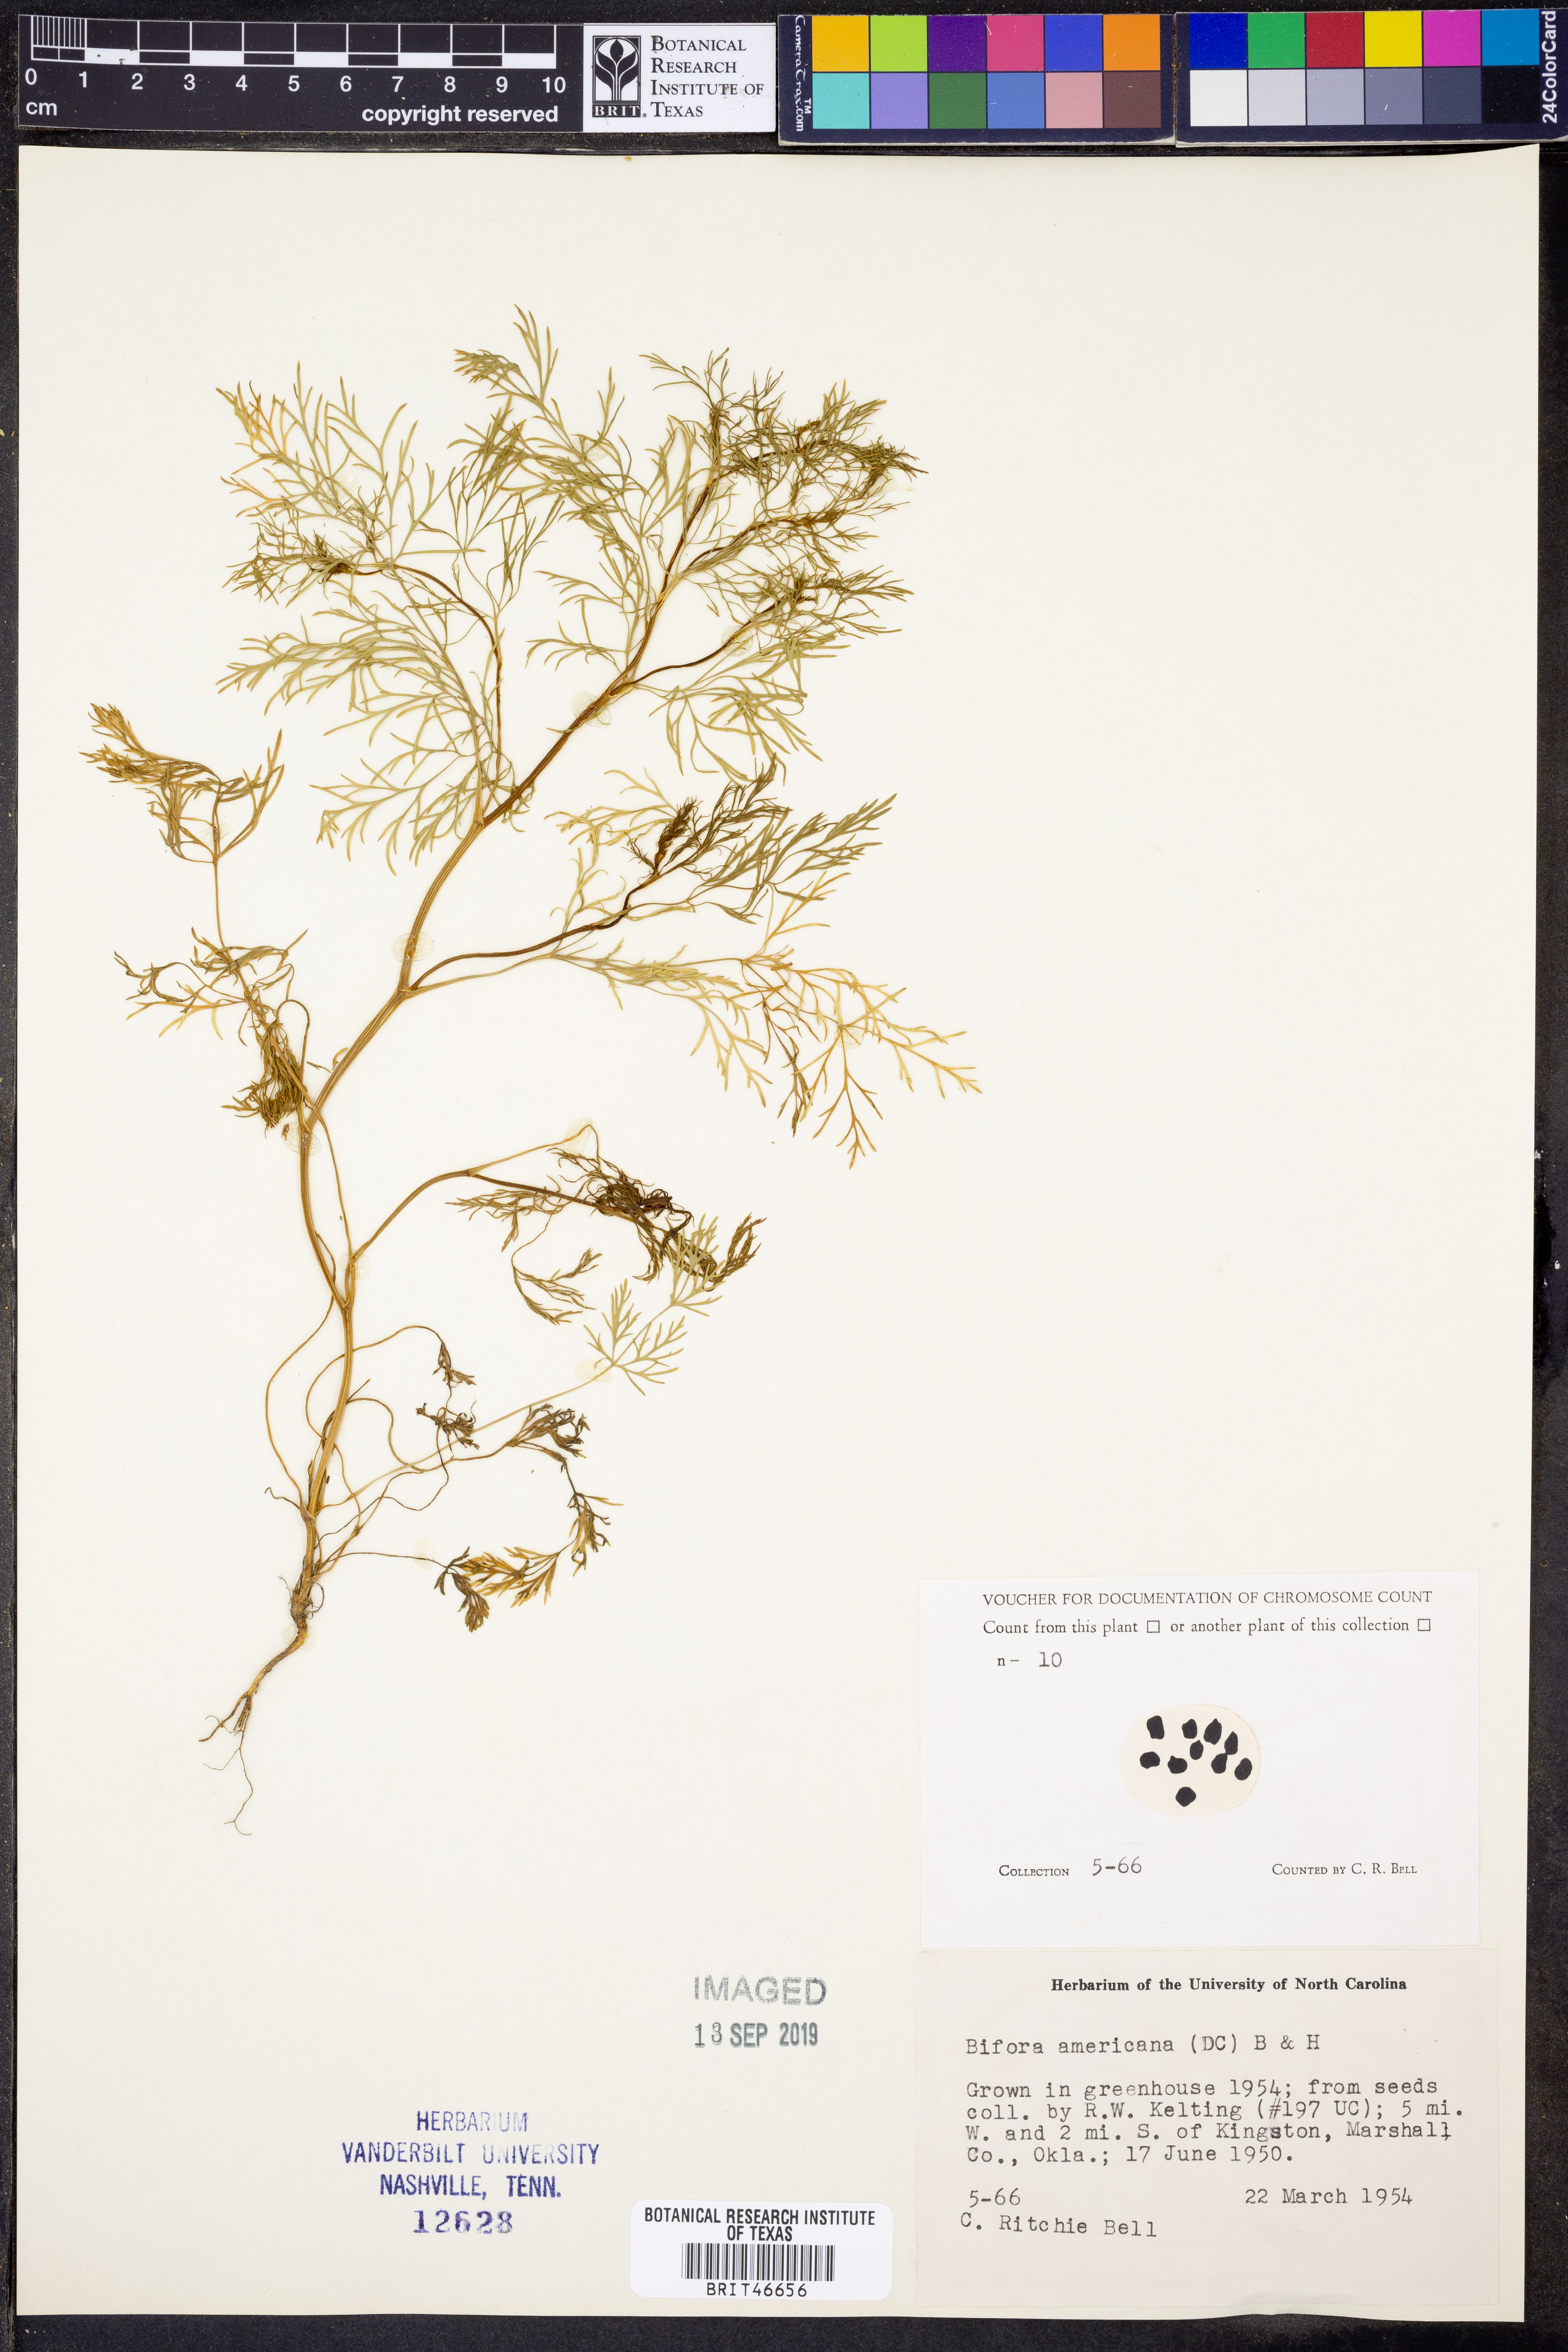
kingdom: Plantae
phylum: Tracheophyta
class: Magnoliopsida
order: Apiales
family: Apiaceae
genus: Atrema
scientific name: Atrema americanum
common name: Prairie-bishop
